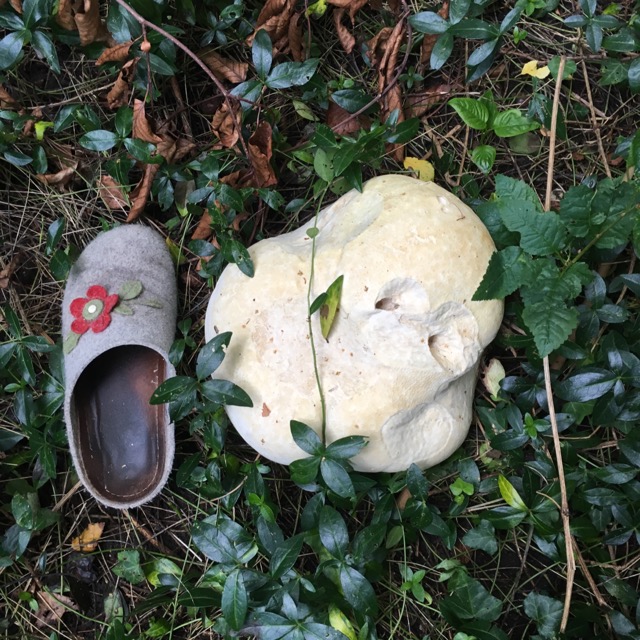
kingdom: Fungi
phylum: Basidiomycota
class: Agaricomycetes
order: Agaricales
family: Lycoperdaceae
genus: Calvatia
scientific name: Calvatia gigantea
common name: kæmpestøvbold
